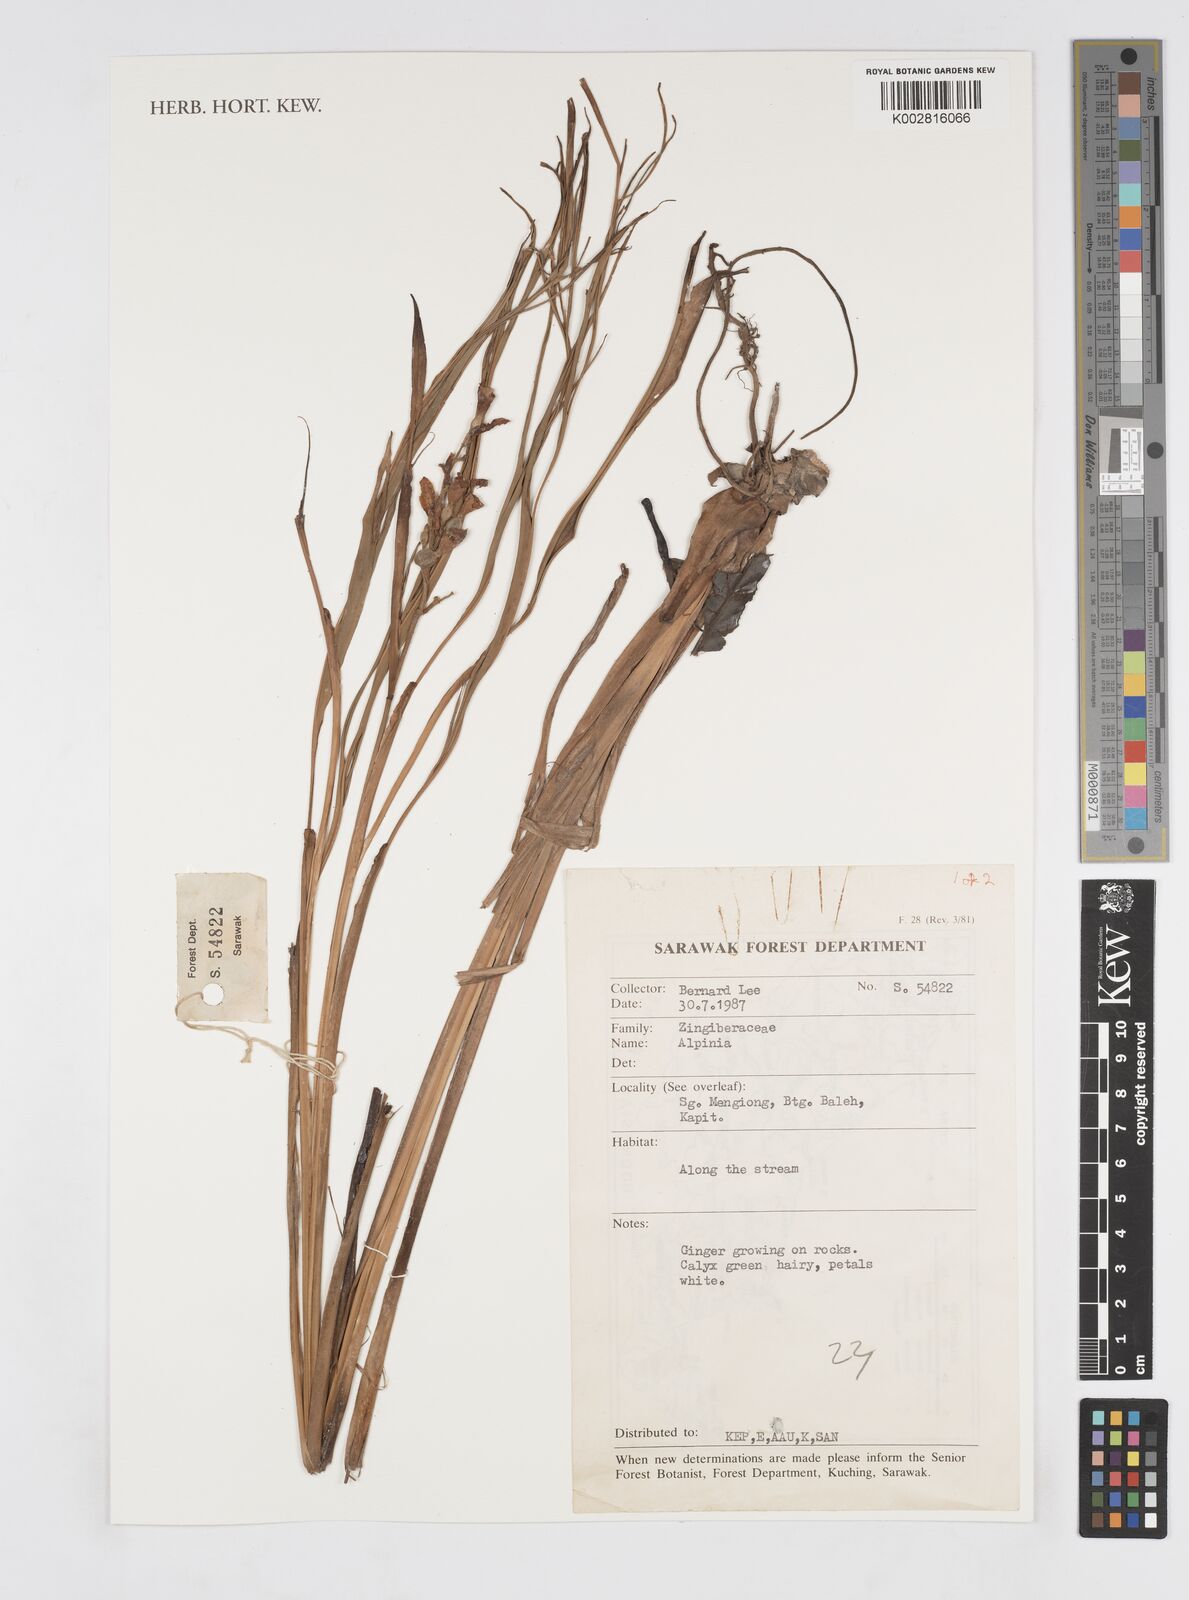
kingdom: Plantae
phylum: Tracheophyta
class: Liliopsida
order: Zingiberales
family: Zingiberaceae
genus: Alpinia
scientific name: Alpinia
